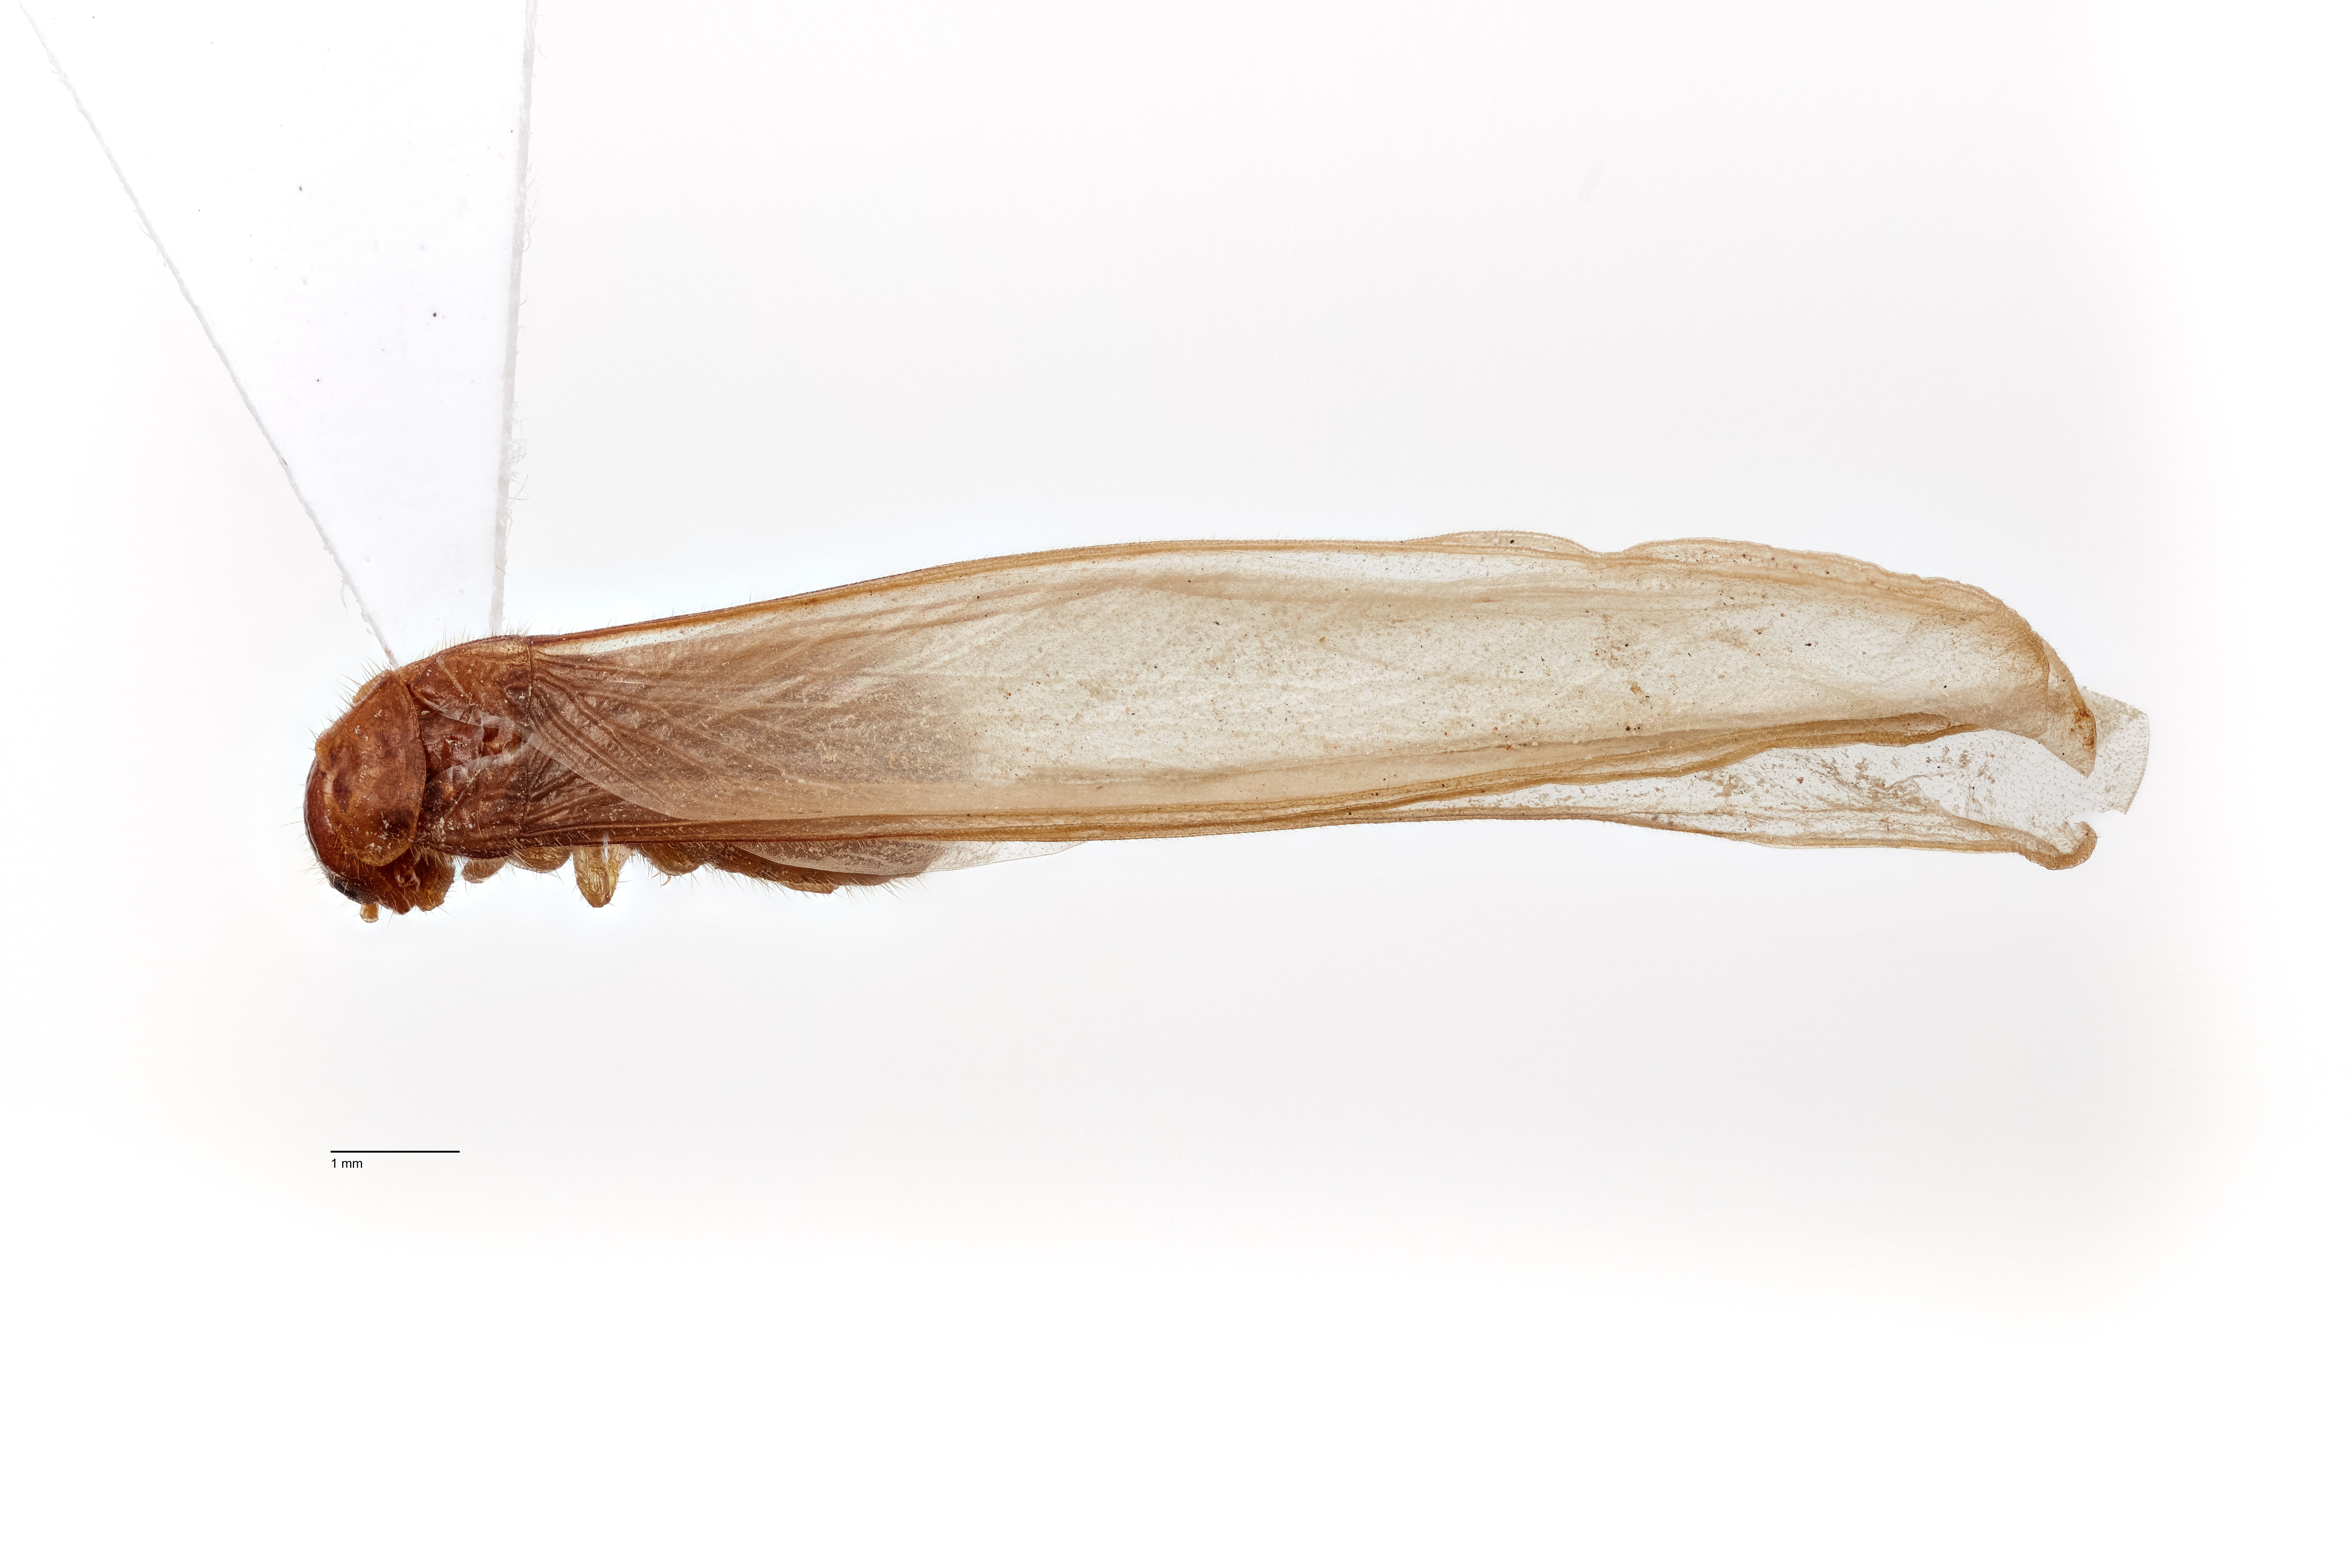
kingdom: Animalia
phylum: Arthropoda
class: Insecta
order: Blattodea
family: Rhinotermitidae
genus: Coptotermes
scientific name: Coptotermes acinaciformis
